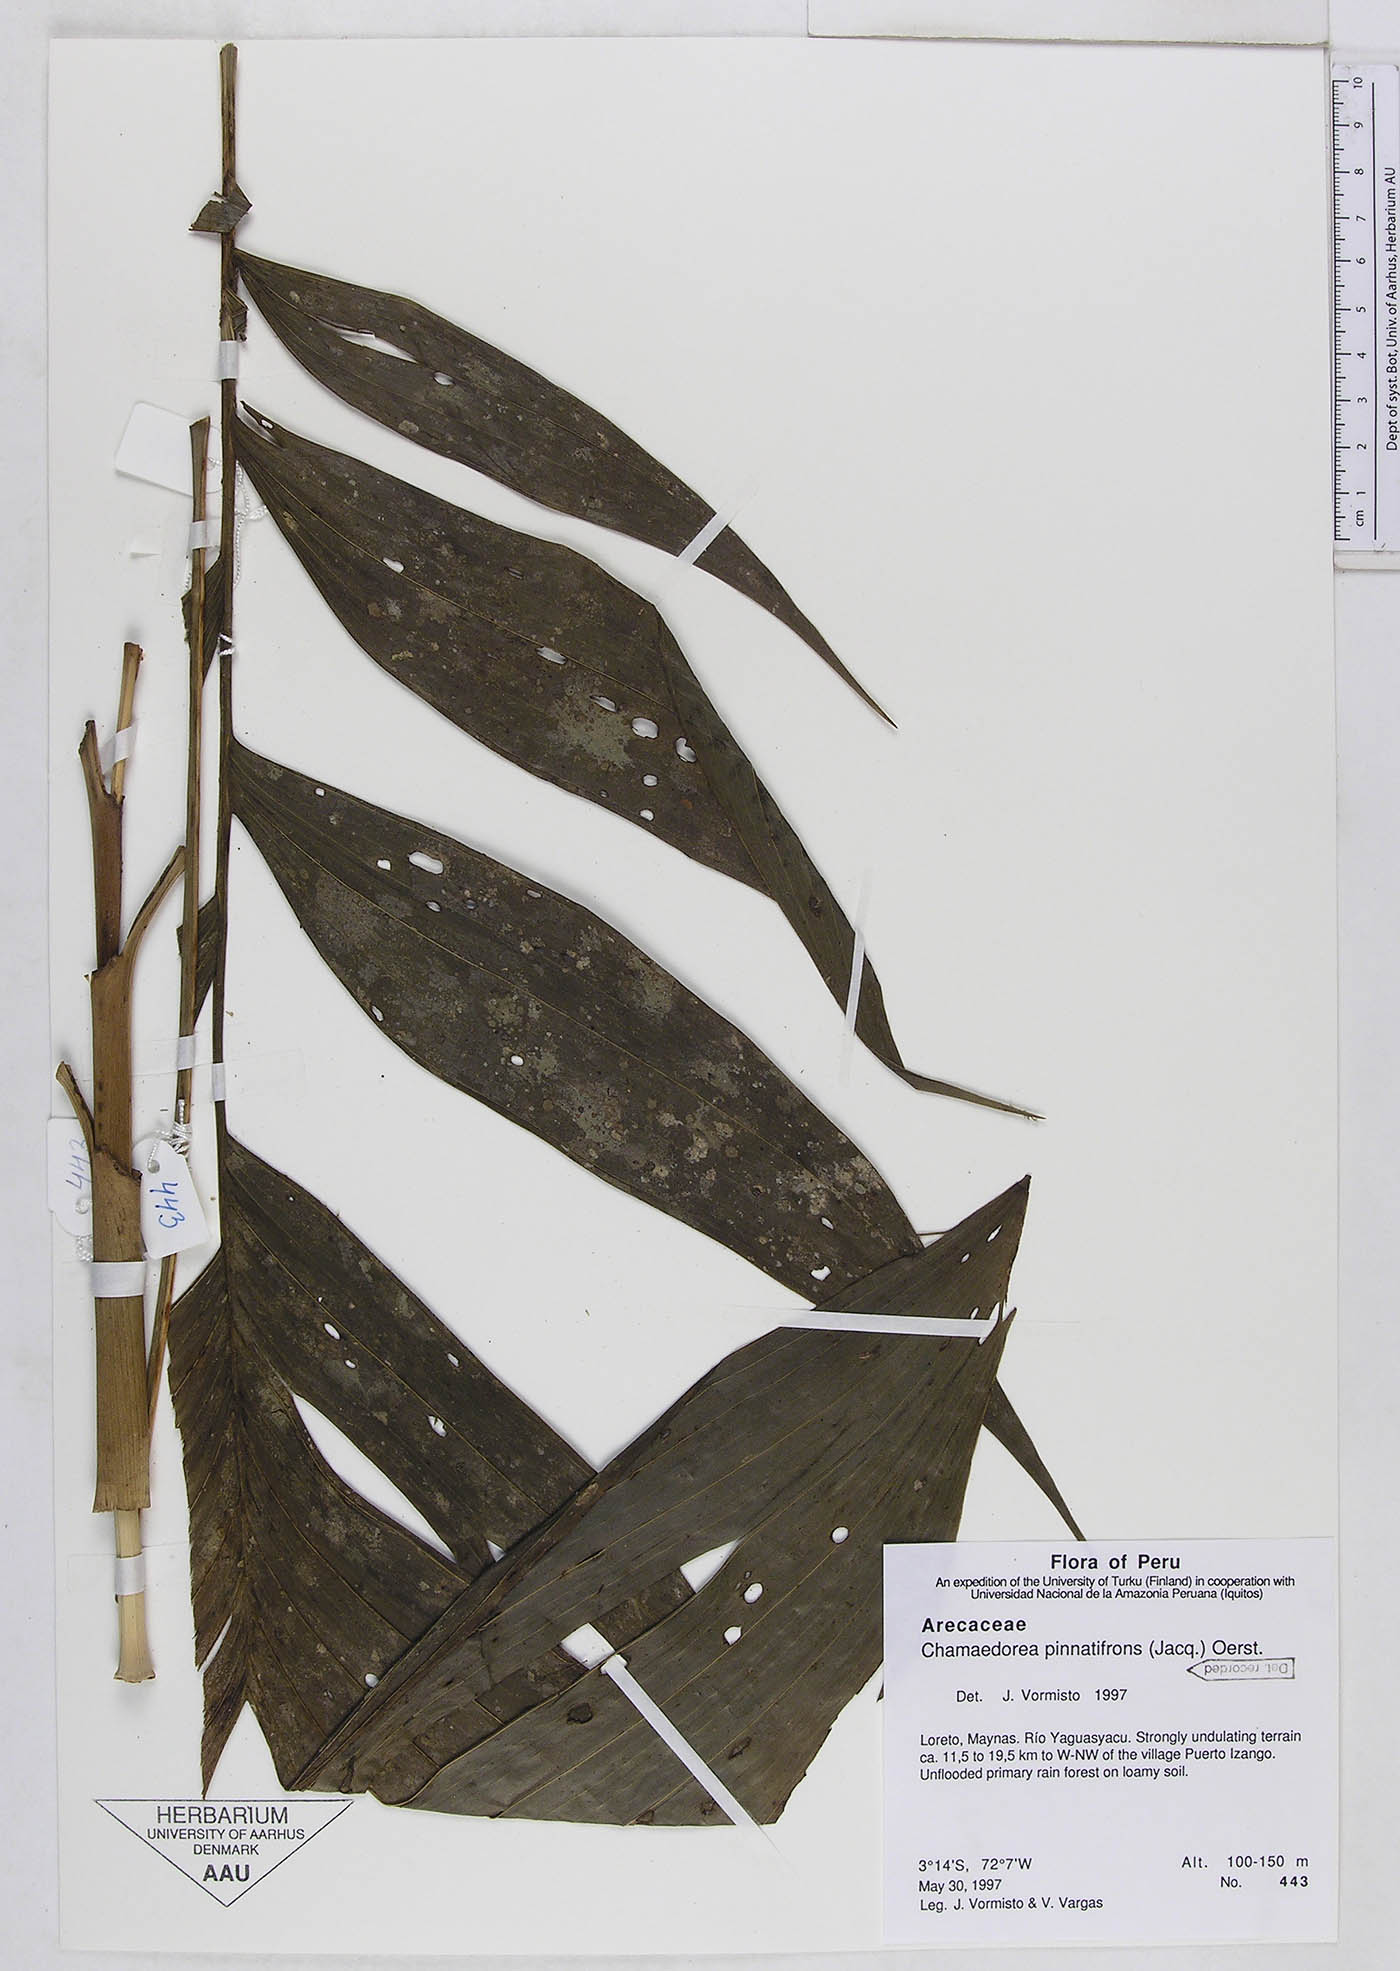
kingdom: Plantae
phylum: Tracheophyta
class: Liliopsida
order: Arecales
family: Arecaceae
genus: Chamaedorea
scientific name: Chamaedorea pinnatifrons
